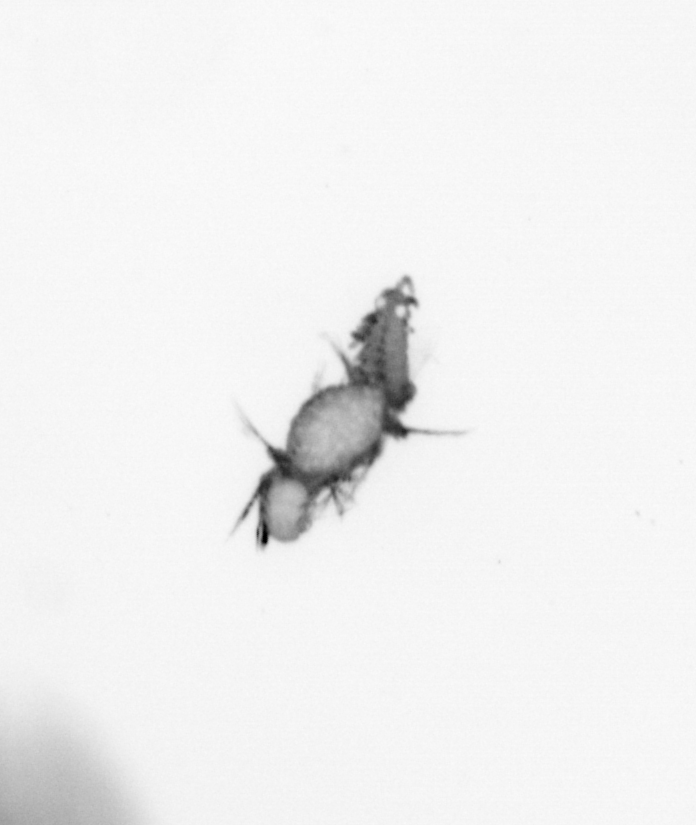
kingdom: Animalia
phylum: Annelida
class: Polychaeta
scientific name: Polychaeta
